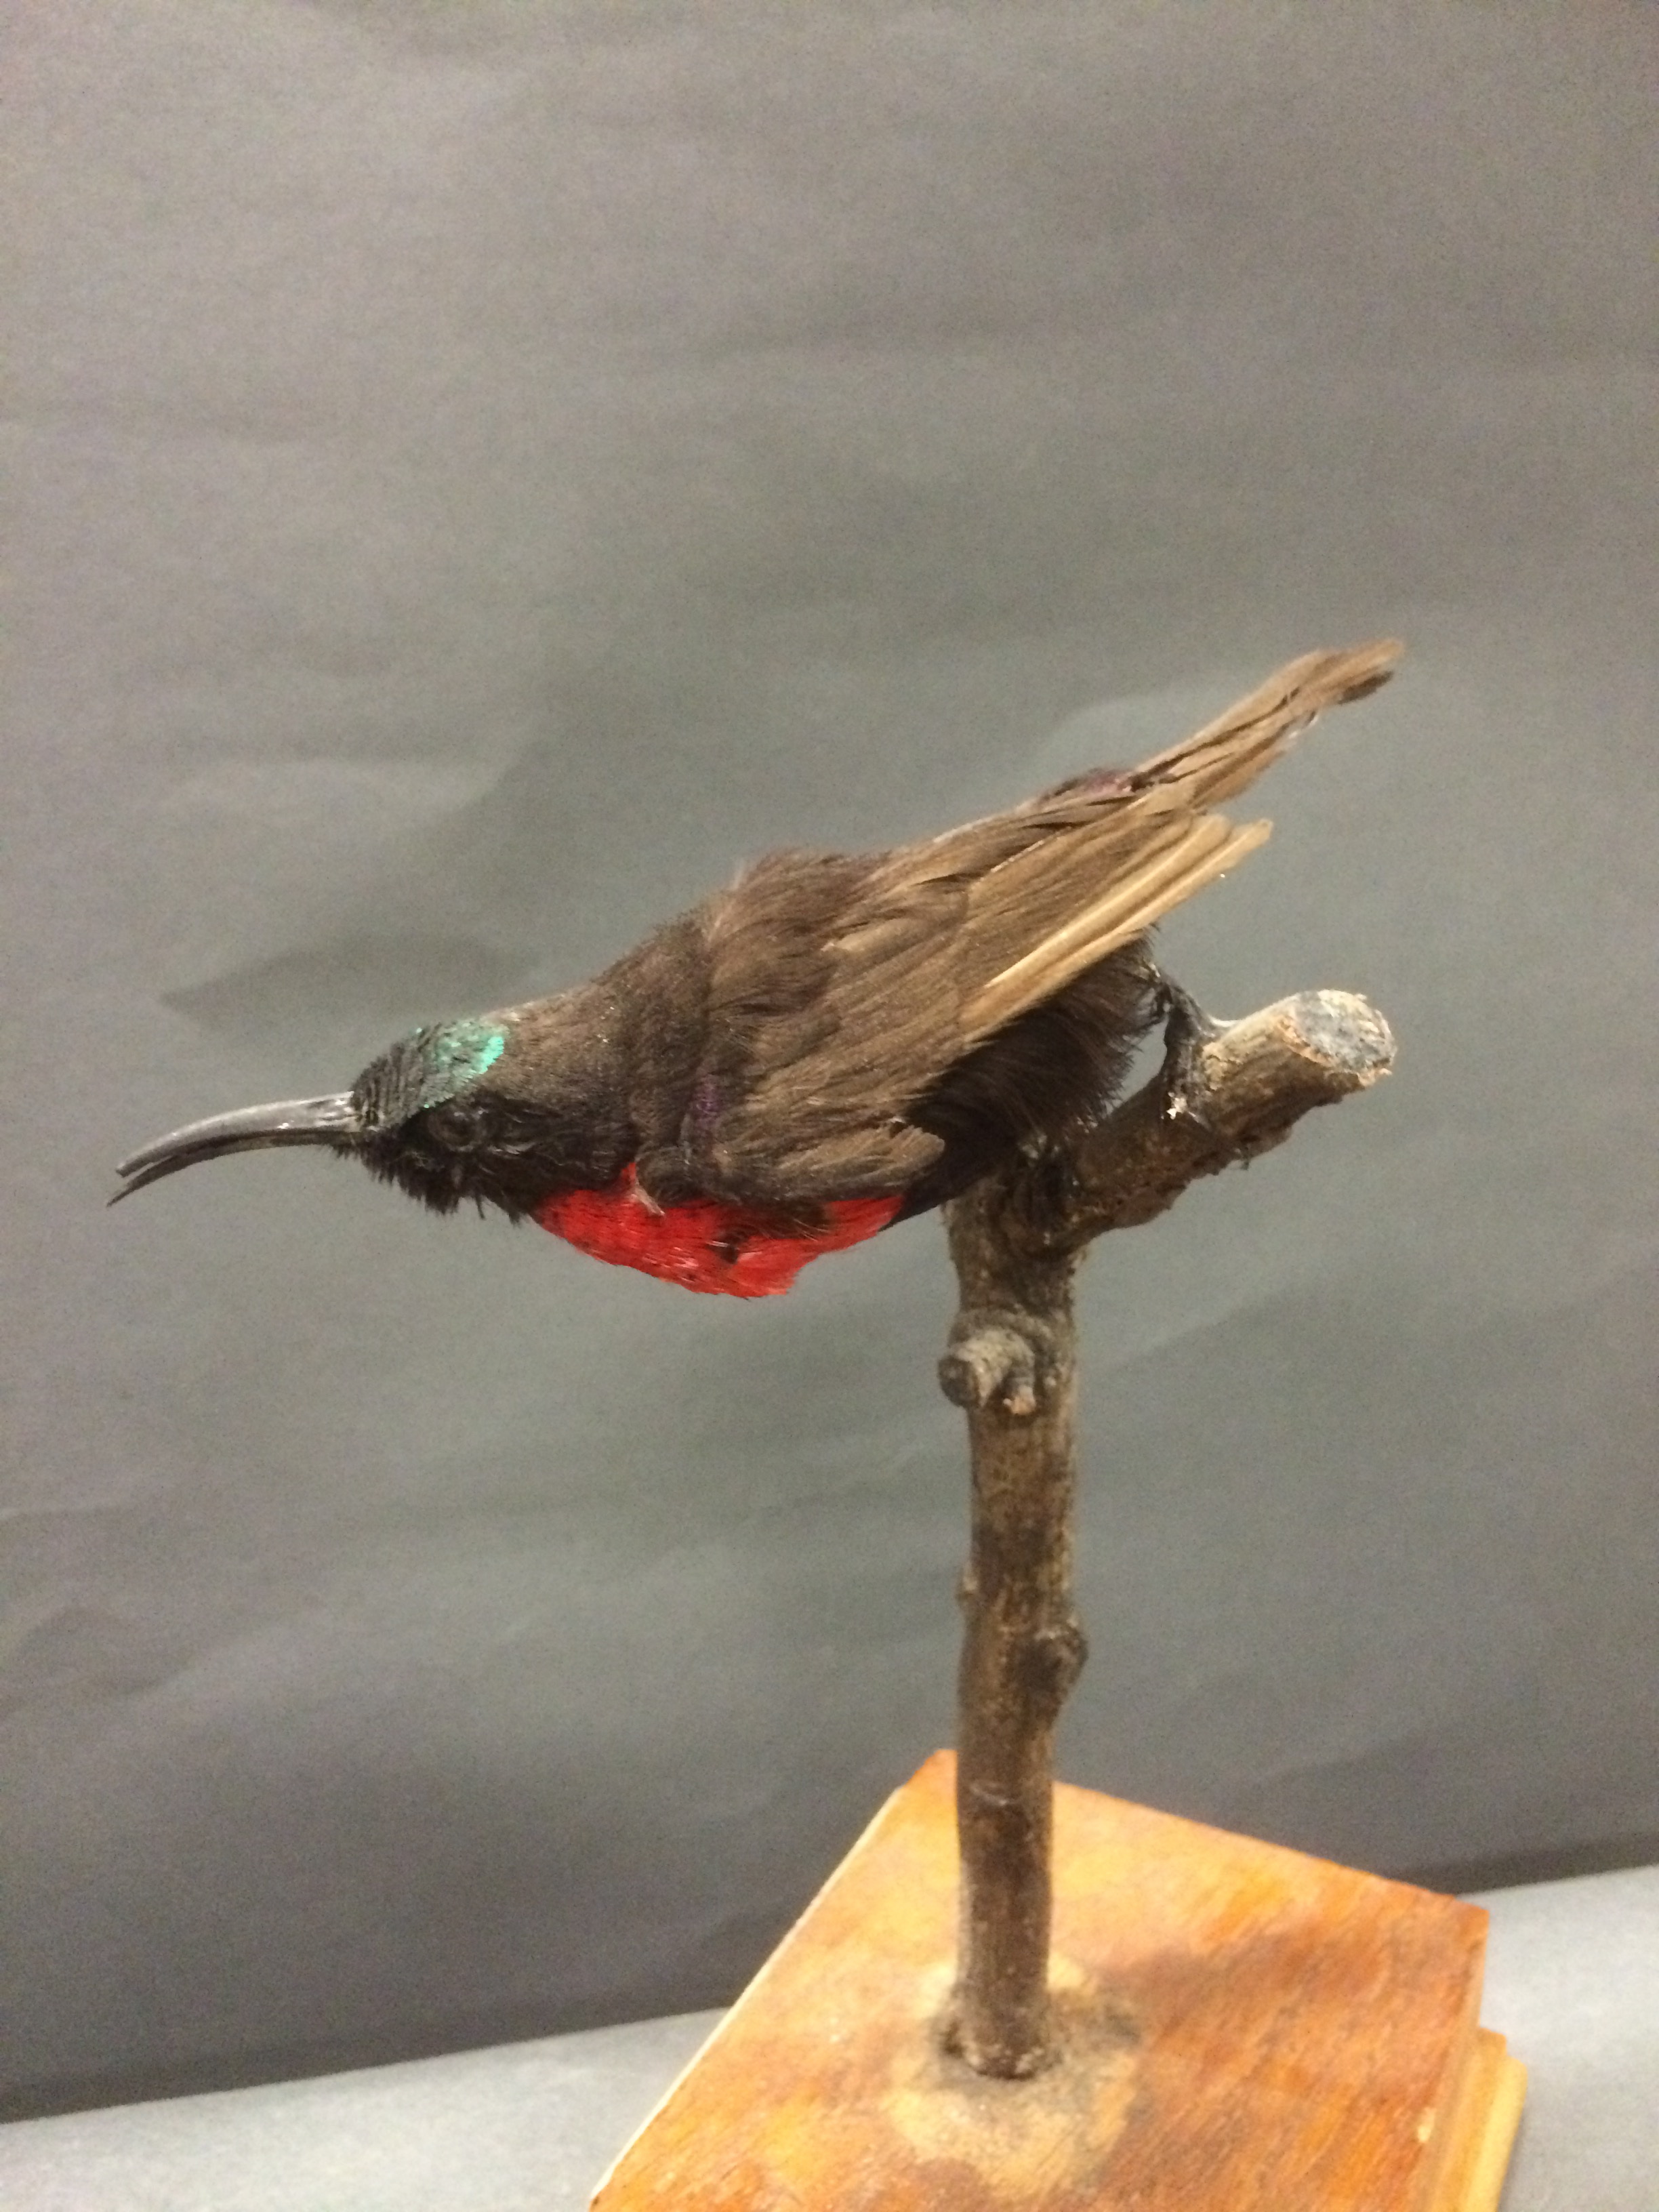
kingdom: Animalia
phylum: Chordata
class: Aves
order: Passeriformes
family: Nectariniidae
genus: Chalcomitra
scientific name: Chalcomitra hunteri
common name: Hunter's sunbird
